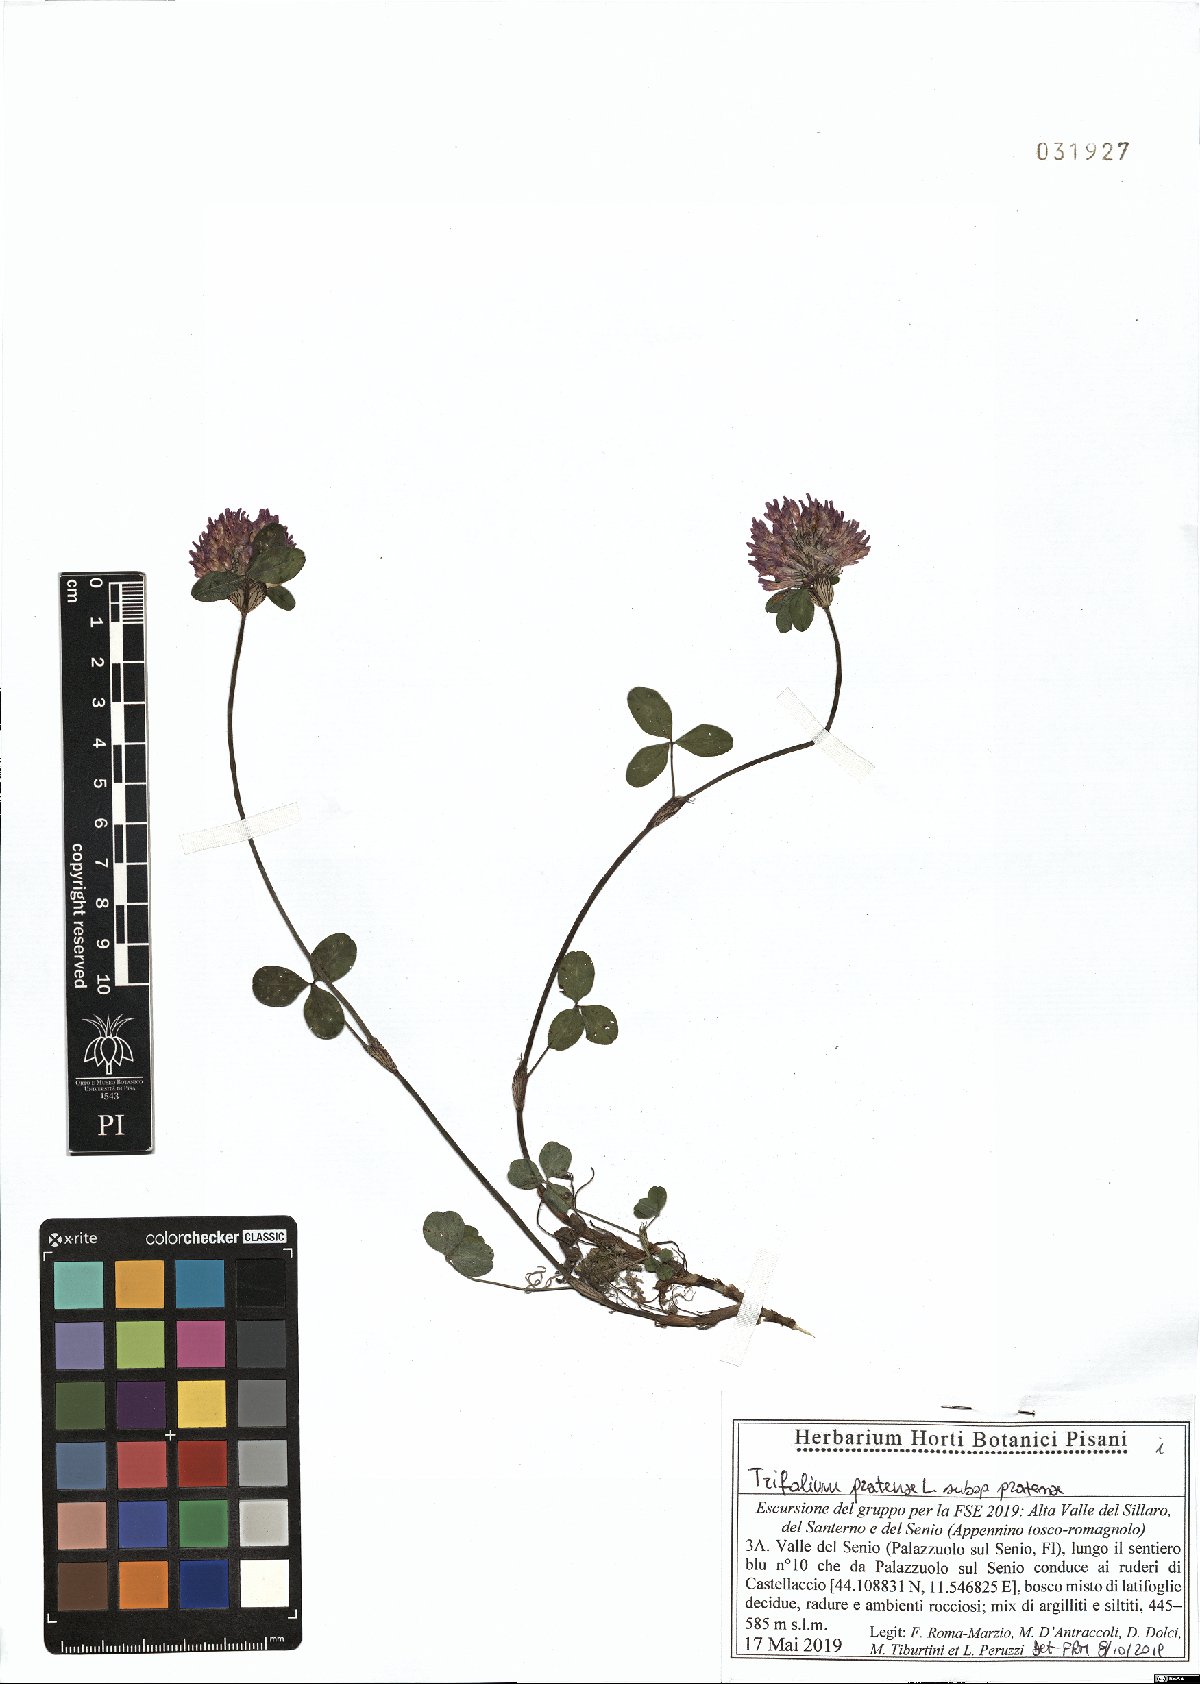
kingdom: Plantae
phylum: Tracheophyta
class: Magnoliopsida
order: Fabales
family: Fabaceae
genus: Trifolium
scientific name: Trifolium pratense
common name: Red clover
